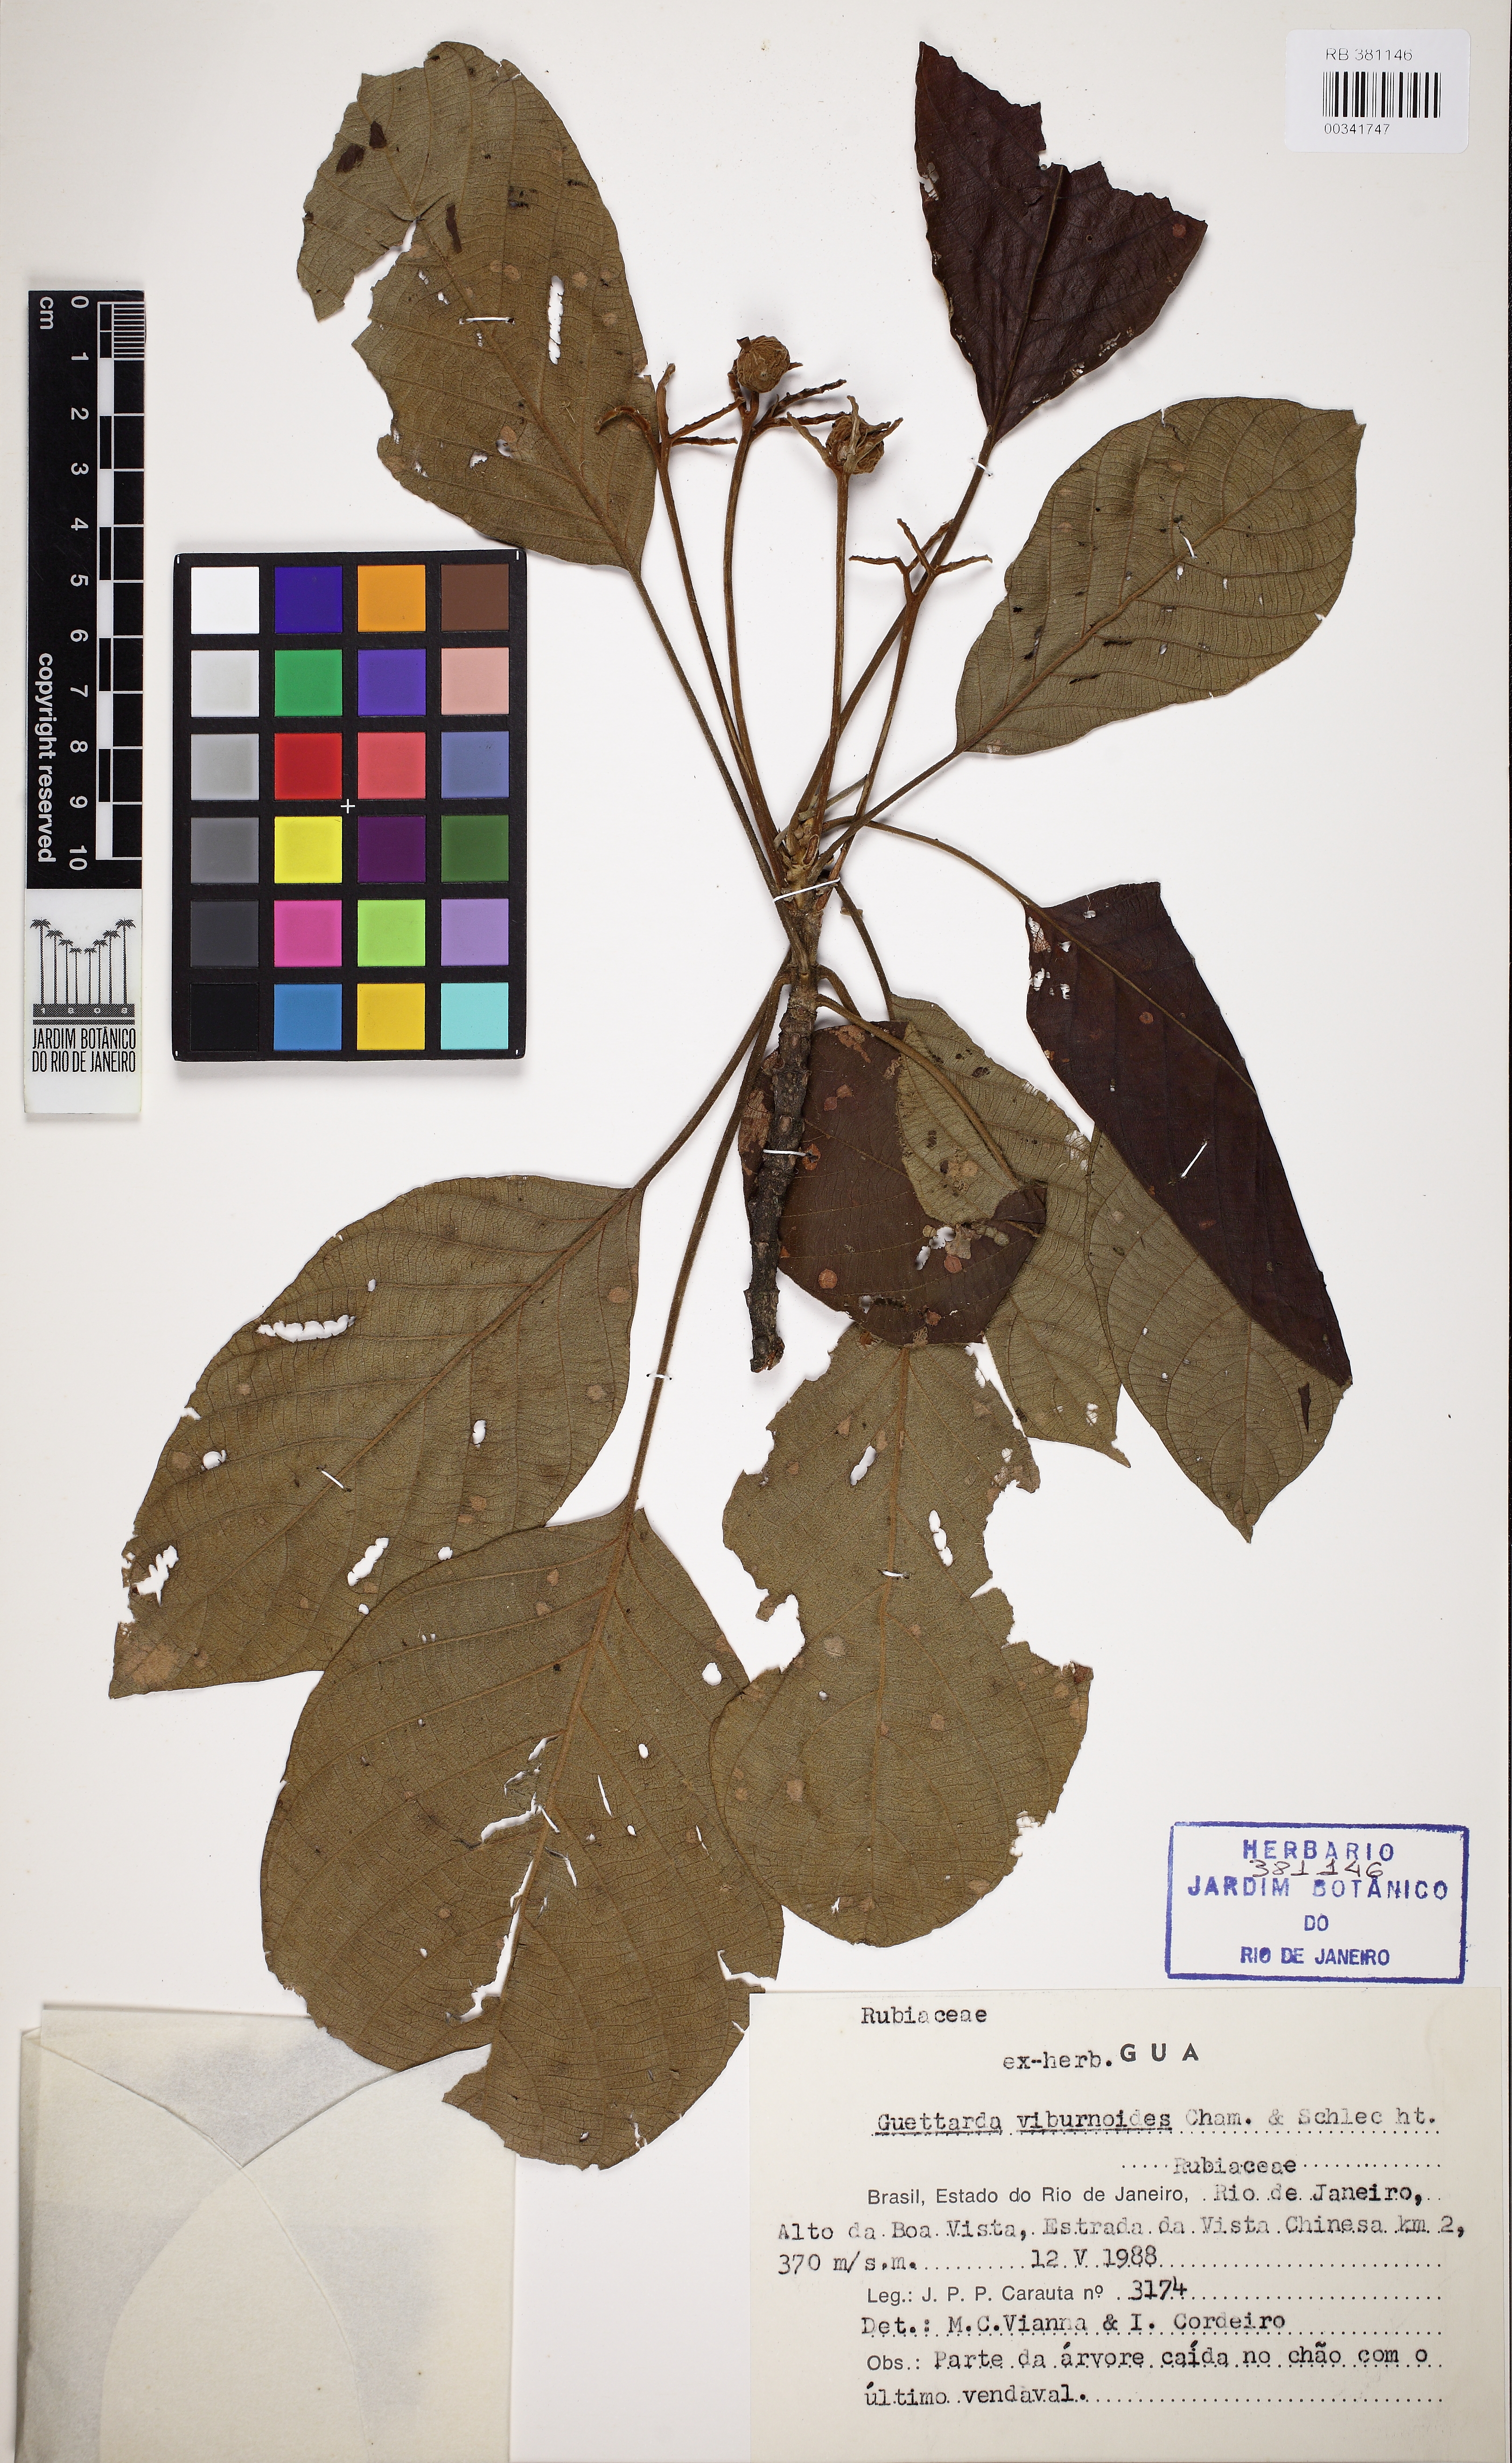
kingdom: Plantae
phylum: Tracheophyta
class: Magnoliopsida
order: Gentianales
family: Rubiaceae
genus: Guettarda
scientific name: Guettarda viburnoides
